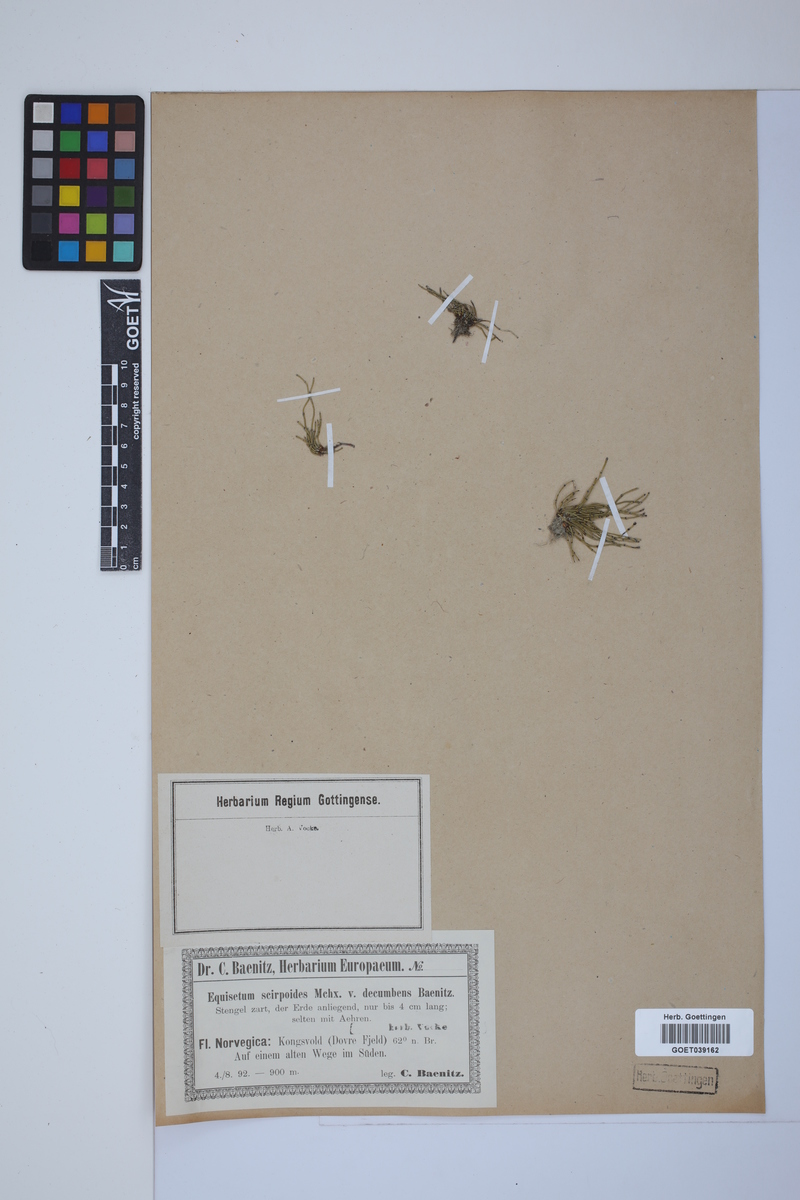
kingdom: Plantae
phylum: Tracheophyta
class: Polypodiopsida
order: Equisetales
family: Equisetaceae
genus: Equisetum
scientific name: Equisetum scirpoides
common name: Delicate horsetail
